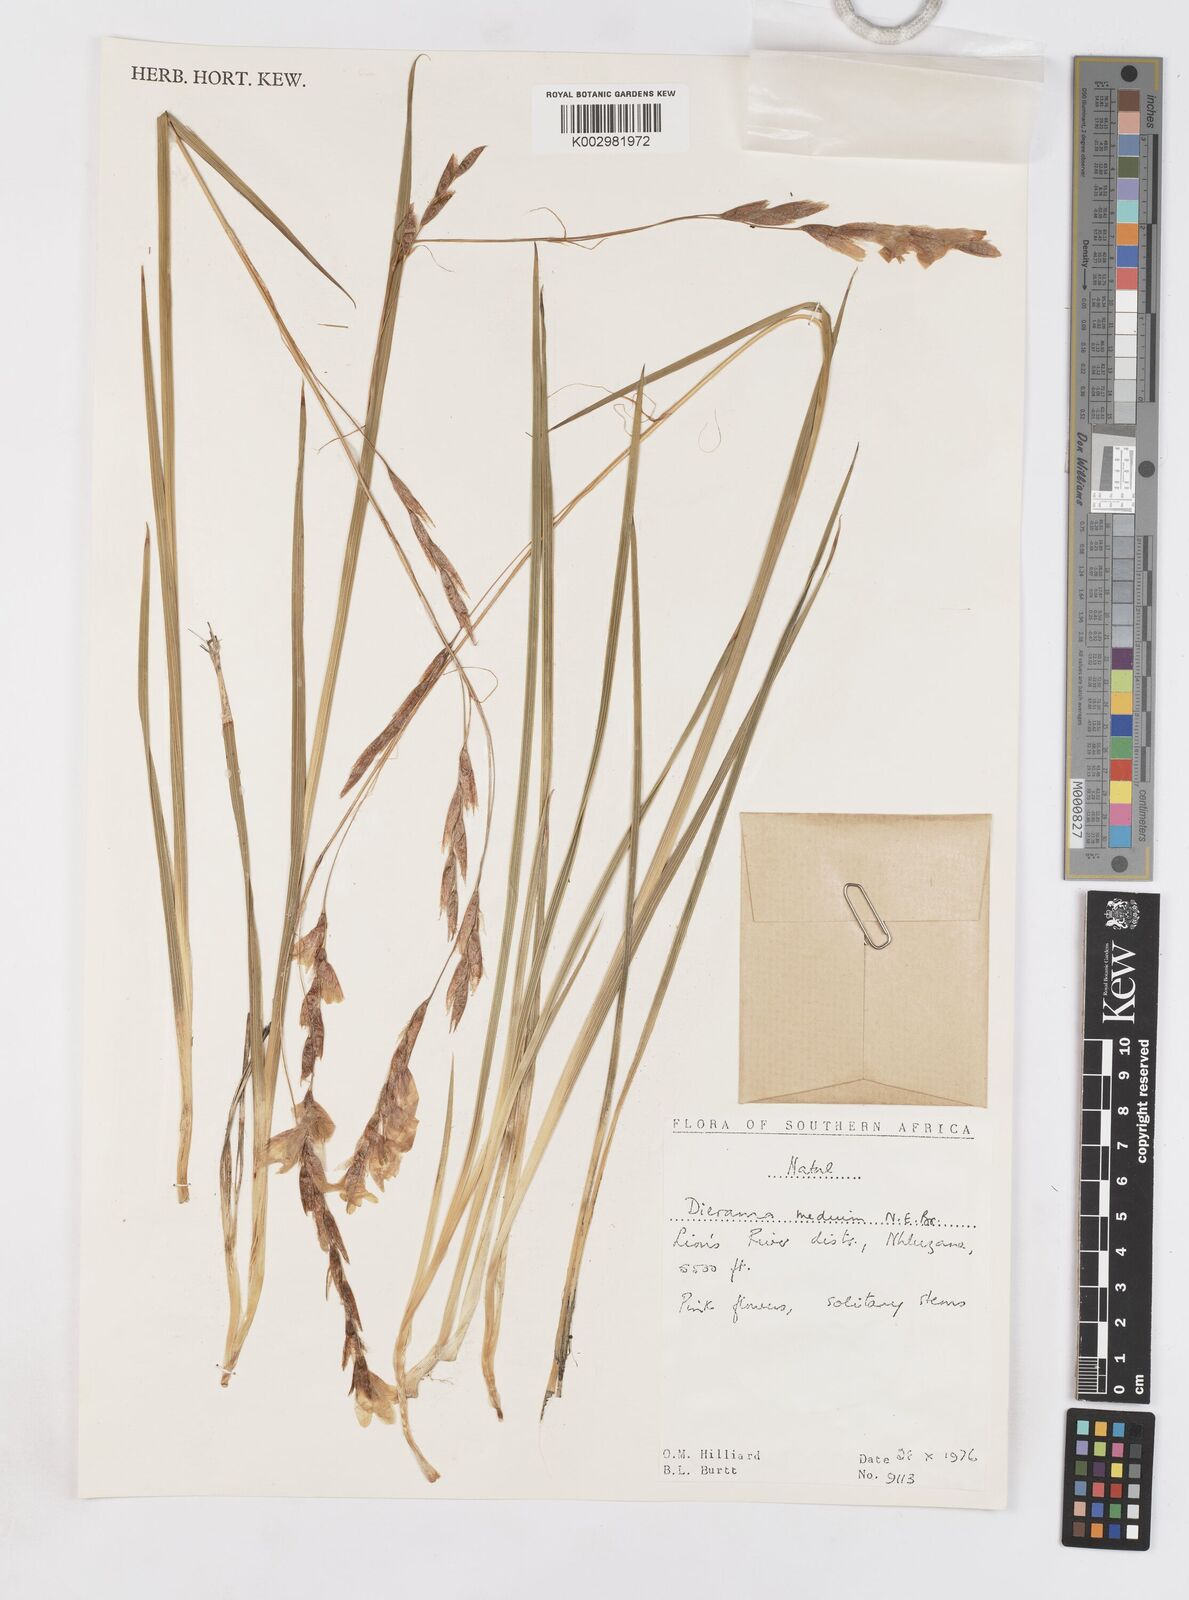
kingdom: Plantae
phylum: Tracheophyta
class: Liliopsida
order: Asparagales
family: Iridaceae
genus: Dierama
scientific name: Dierama medium
